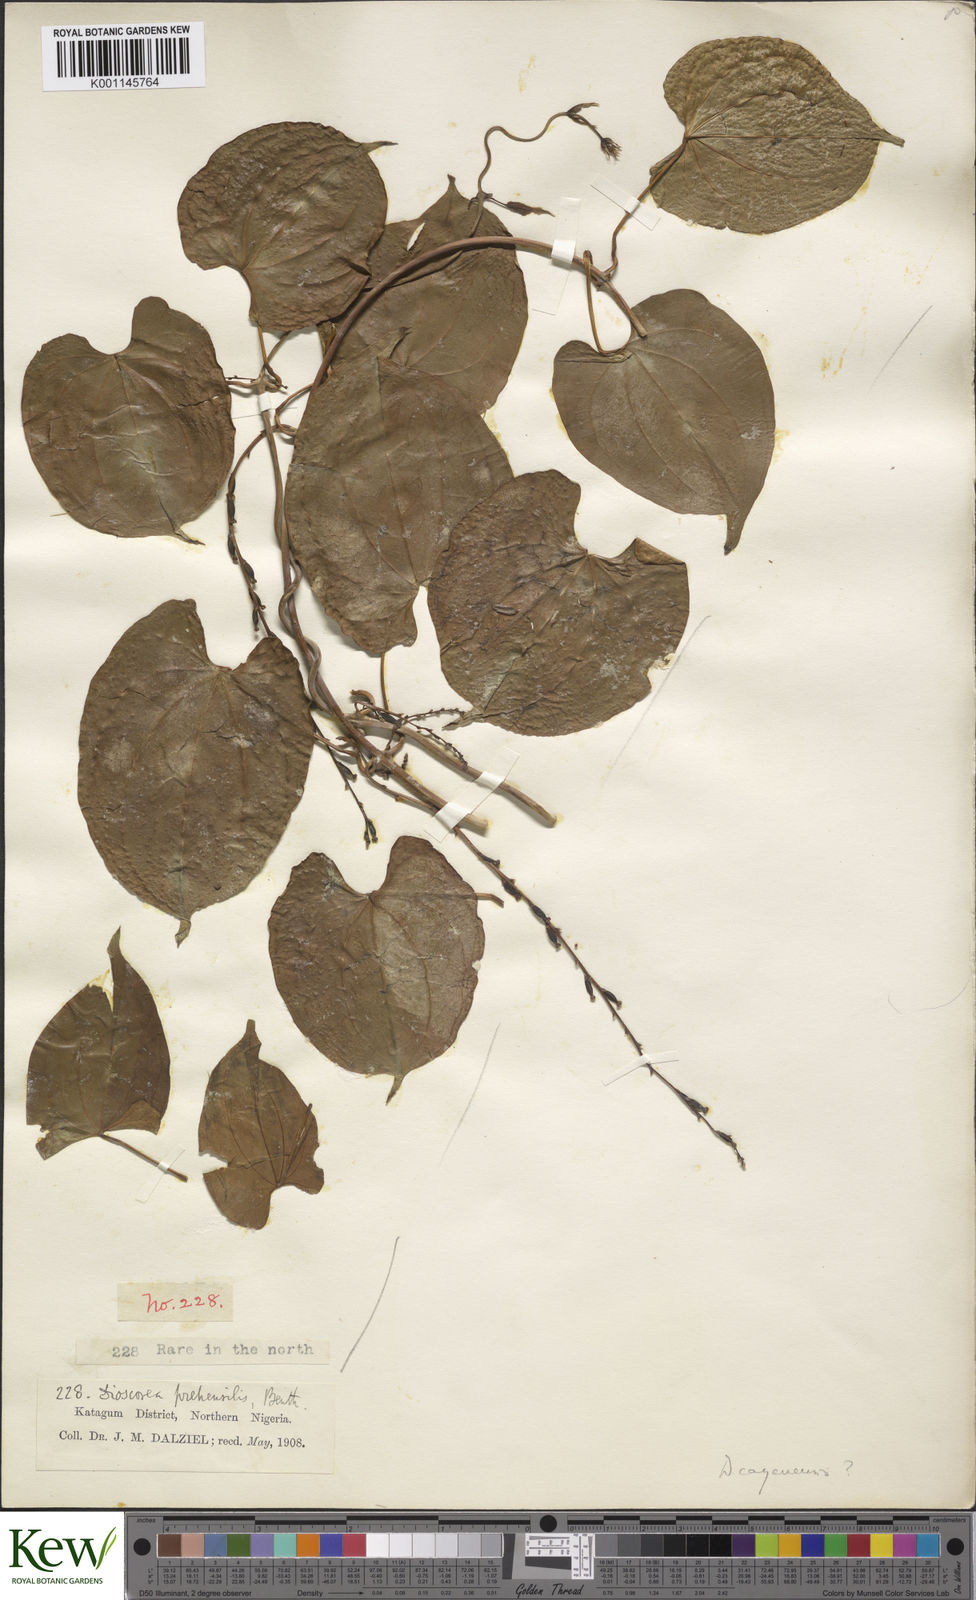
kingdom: Plantae
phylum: Tracheophyta
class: Liliopsida
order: Dioscoreales
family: Dioscoreaceae
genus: Dioscorea
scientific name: Dioscorea cayenensis
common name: Attoto yam
